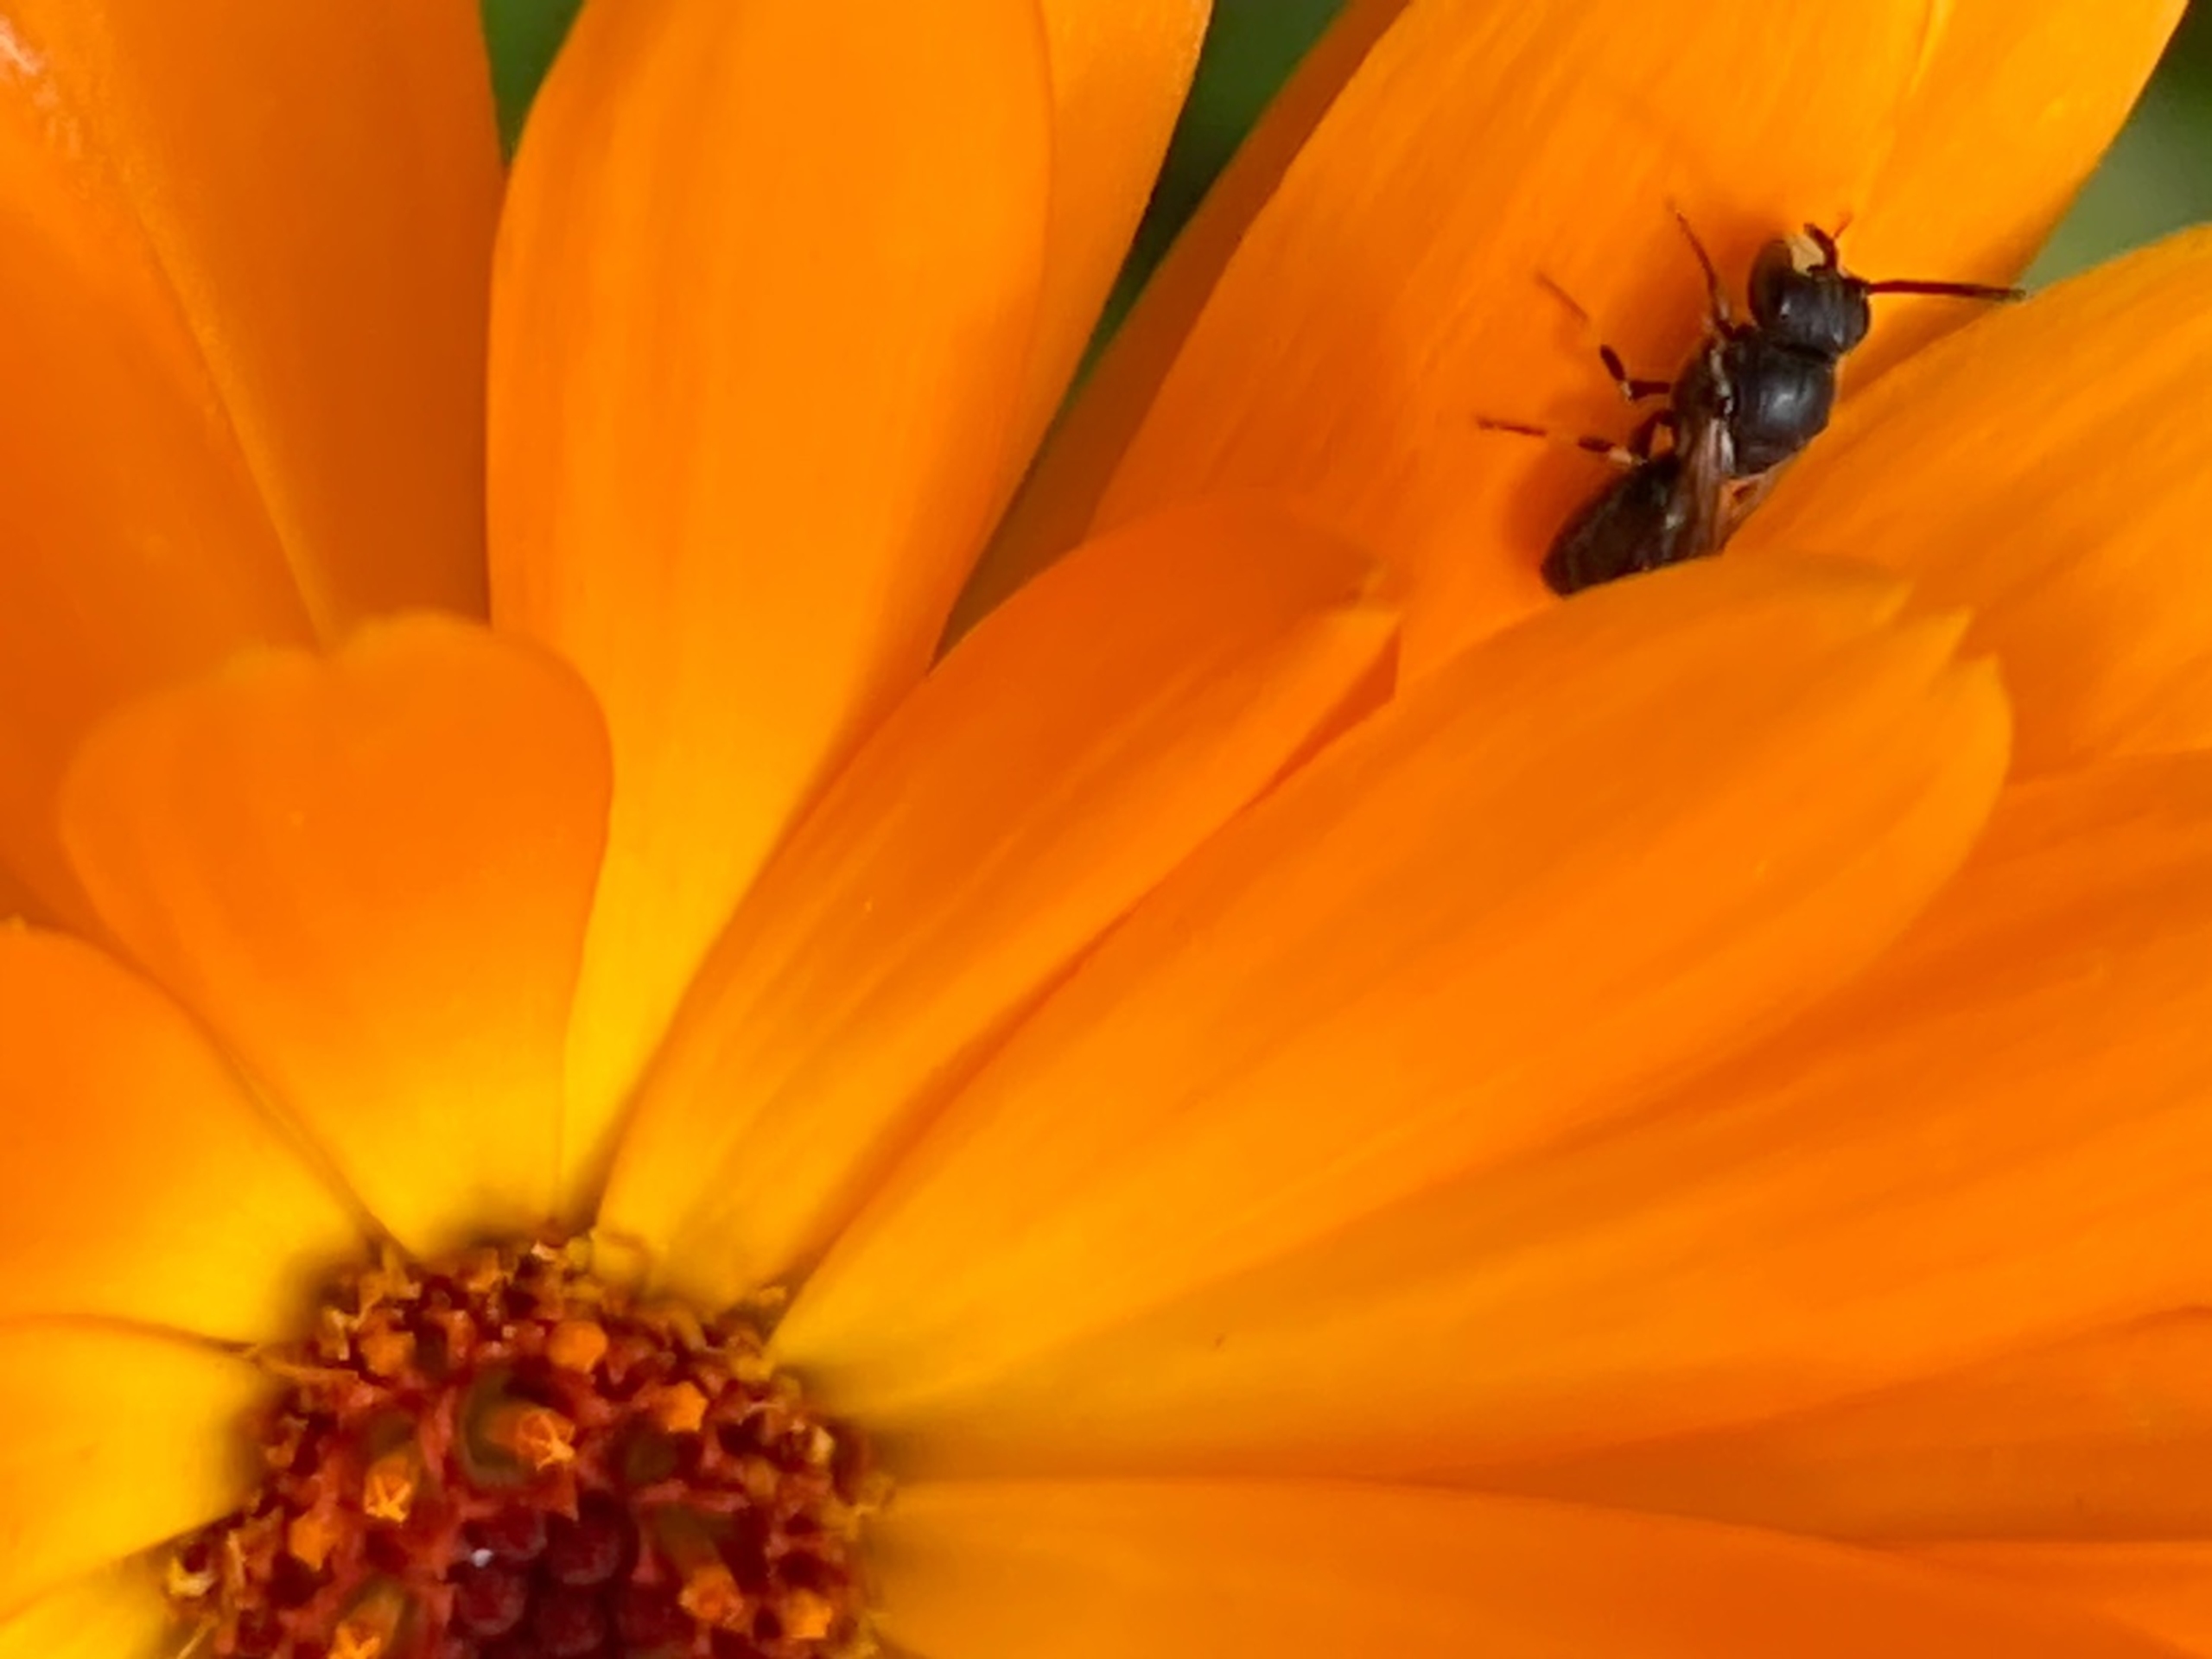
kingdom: Animalia
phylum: Arthropoda
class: Insecta
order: Hymenoptera
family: Colletidae
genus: Hylaeus
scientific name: Hylaeus
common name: Maskebier
